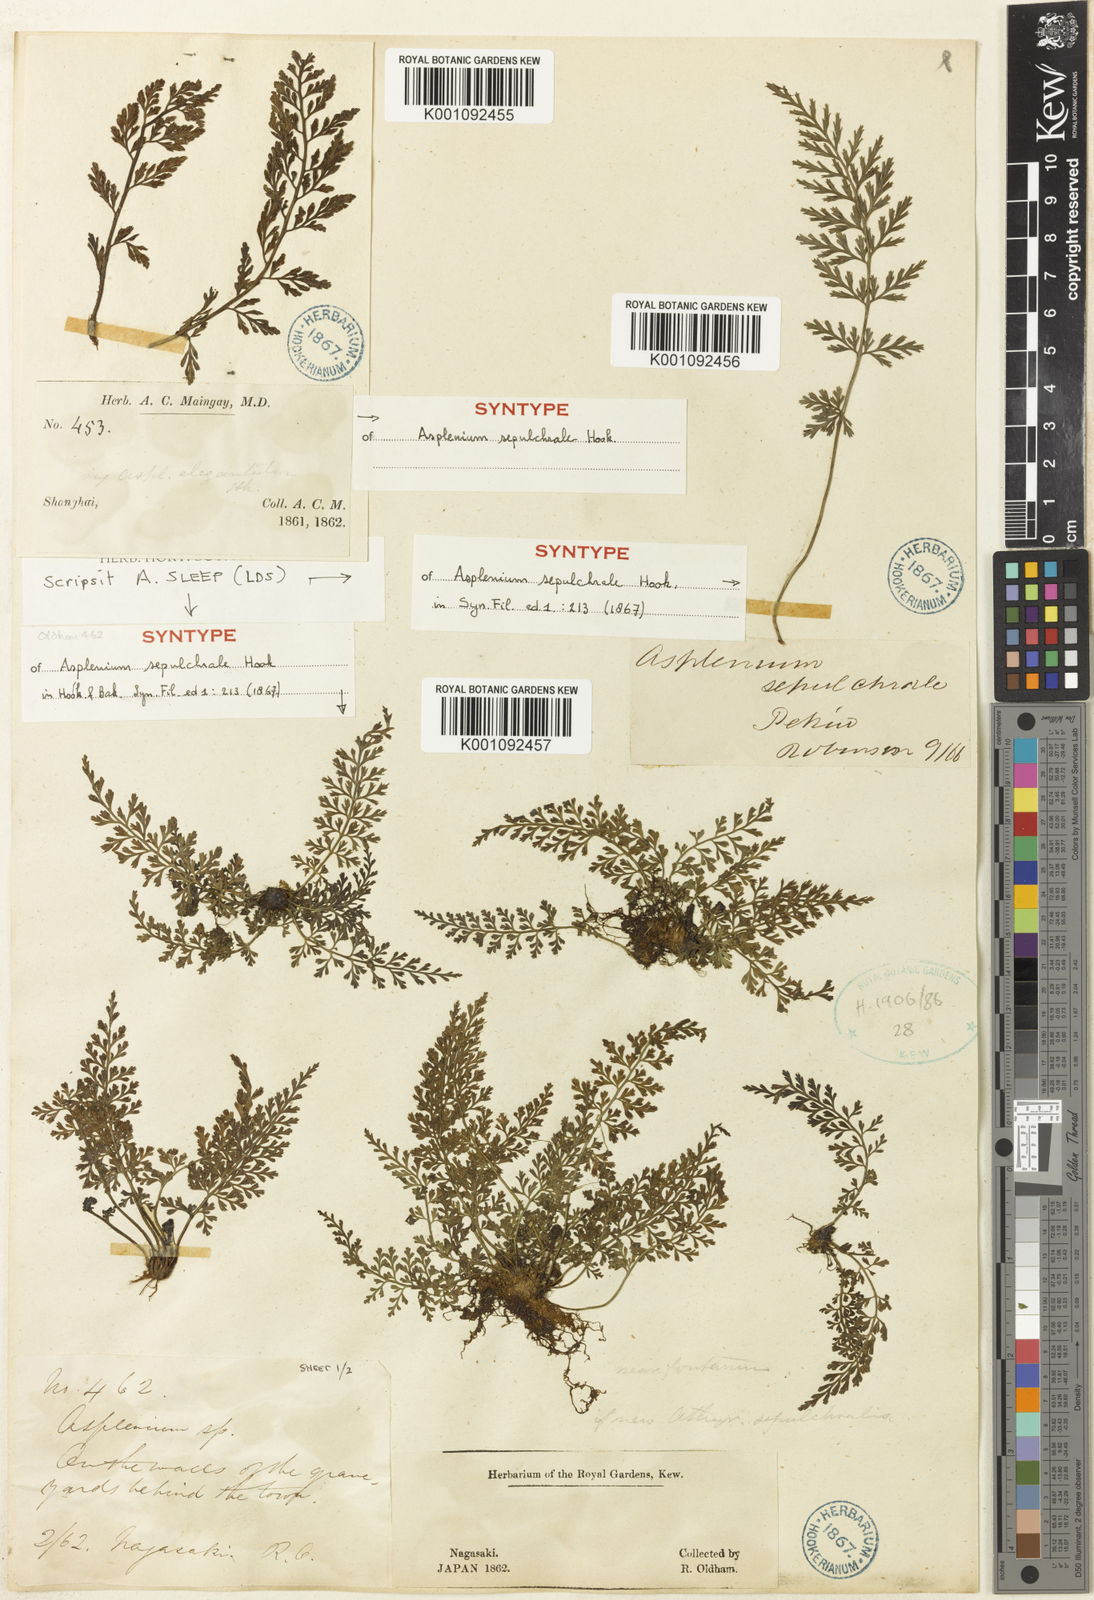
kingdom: Plantae
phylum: Tracheophyta
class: Polypodiopsida
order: Polypodiales
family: Aspleniaceae
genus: Asplenium
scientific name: Asplenium sarelii
